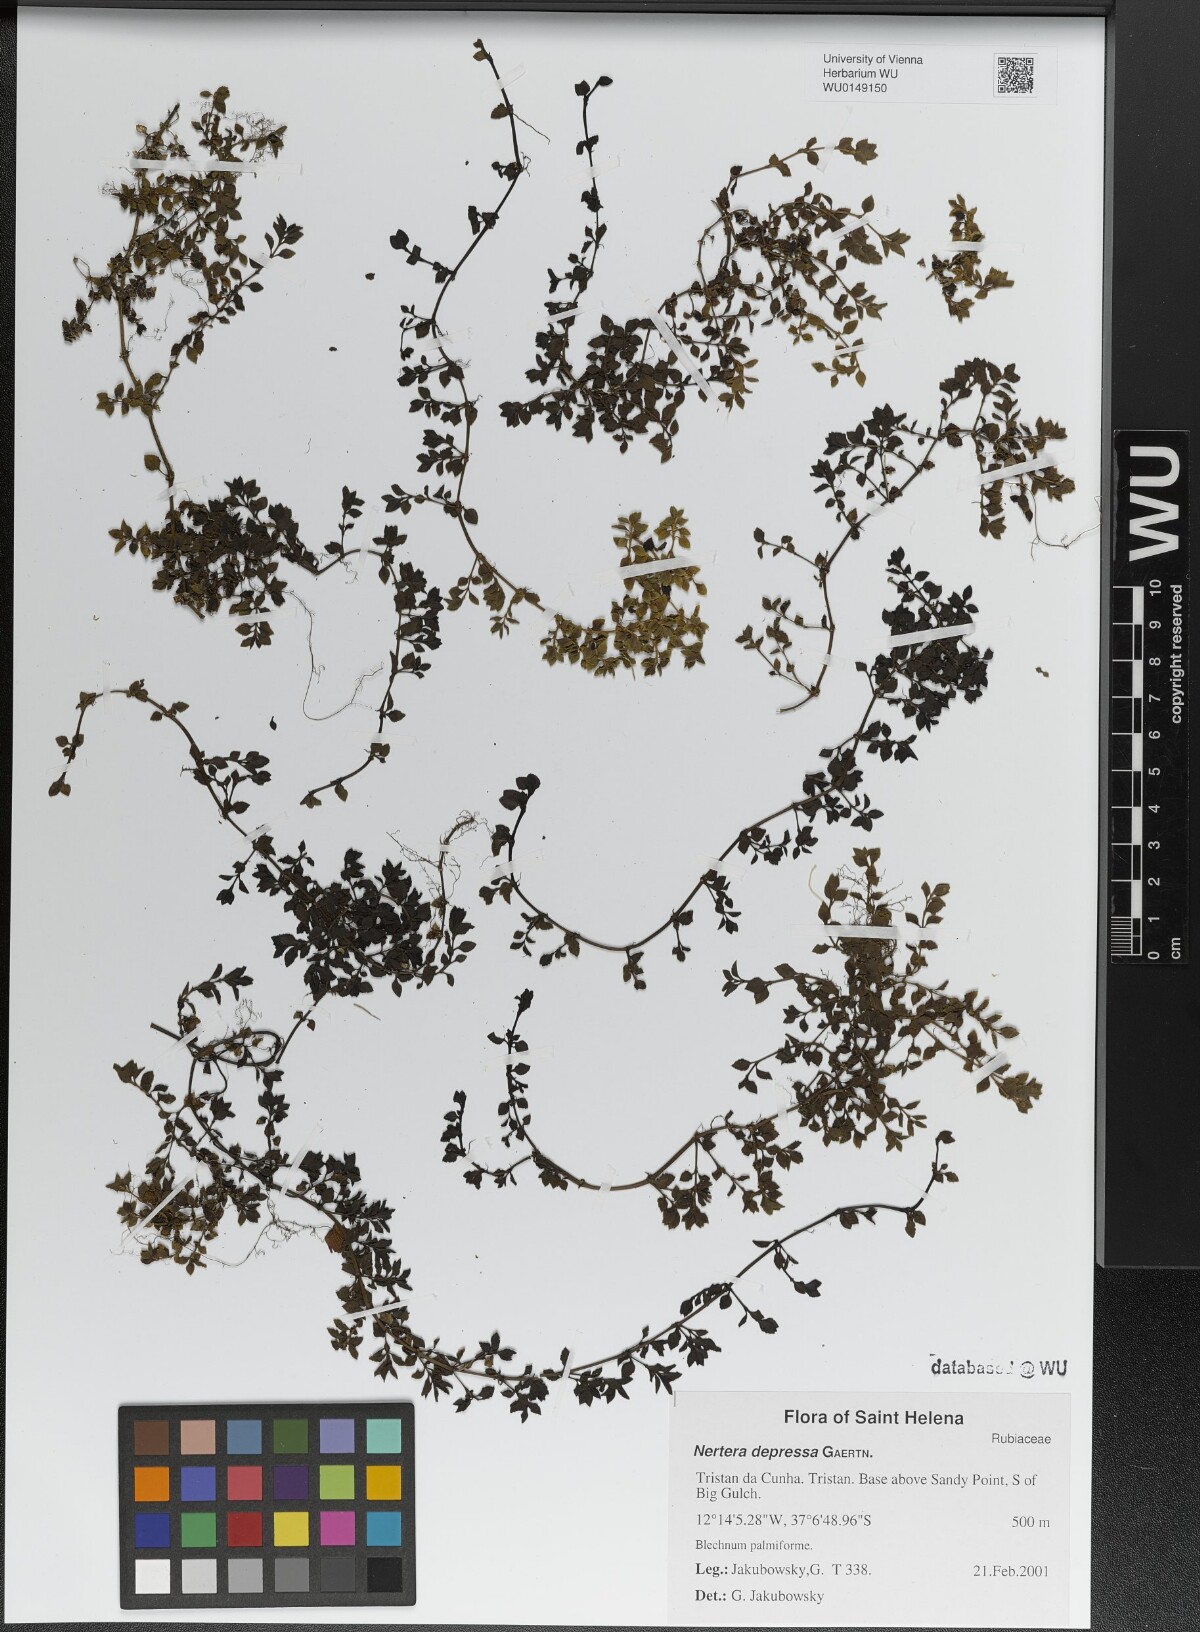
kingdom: Plantae
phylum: Tracheophyta
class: Magnoliopsida
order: Gentianales
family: Rubiaceae
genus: Nertera
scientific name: Nertera granadensis
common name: Beadplant
